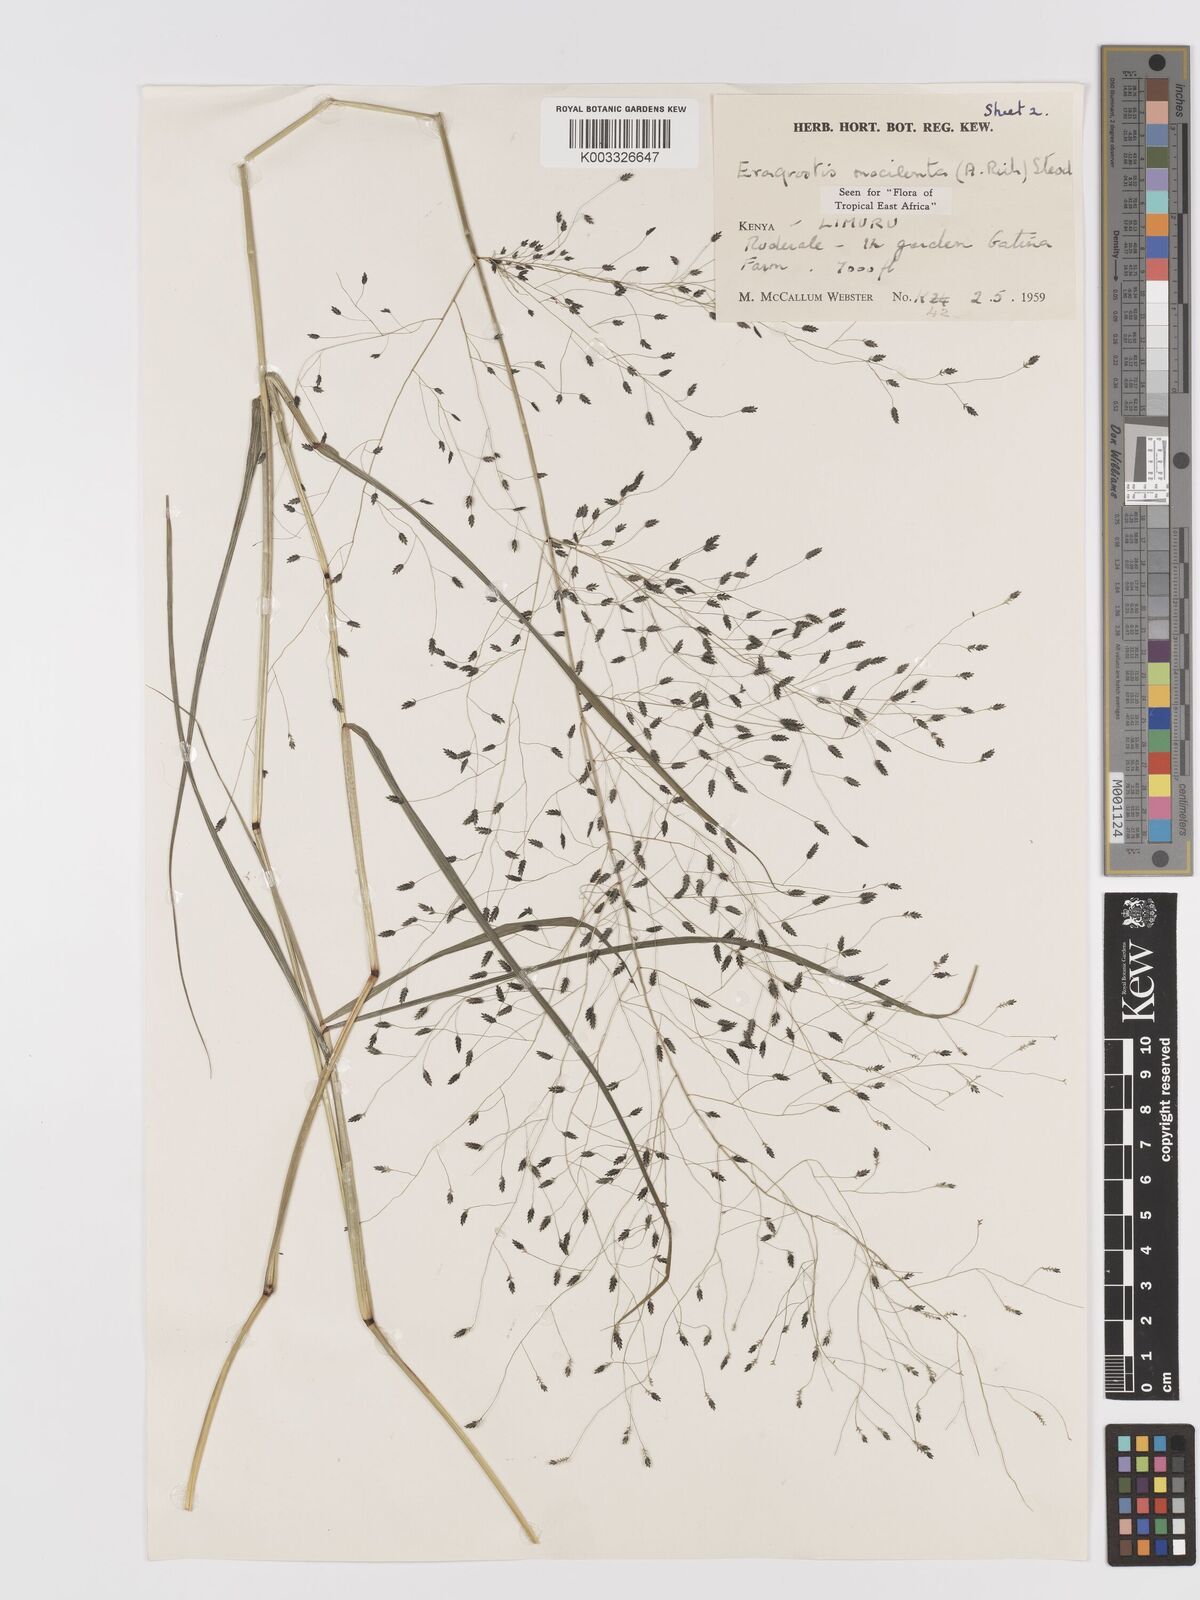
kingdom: Plantae
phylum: Tracheophyta
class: Liliopsida
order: Poales
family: Poaceae
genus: Eragrostis
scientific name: Eragrostis macilenta
